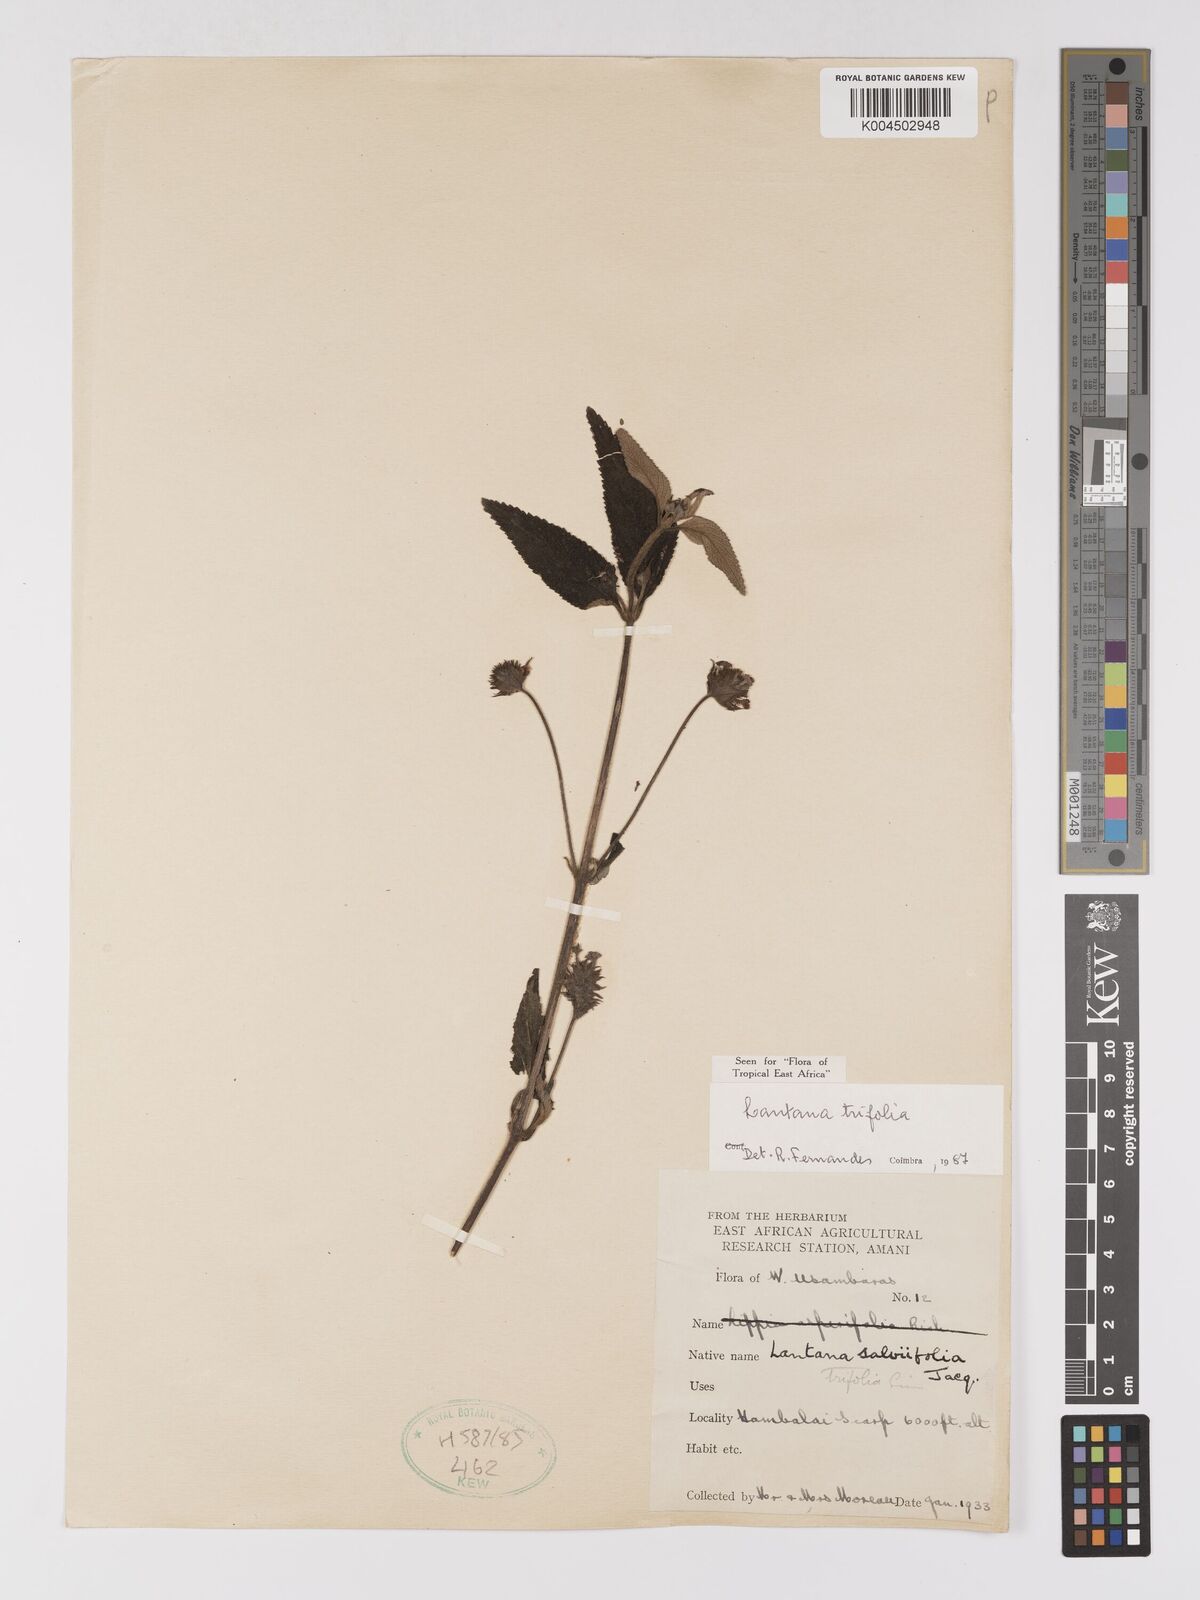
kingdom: Plantae
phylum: Tracheophyta
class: Magnoliopsida
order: Lamiales
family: Verbenaceae
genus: Lantana
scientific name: Lantana trifolia
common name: Sweet-sage
